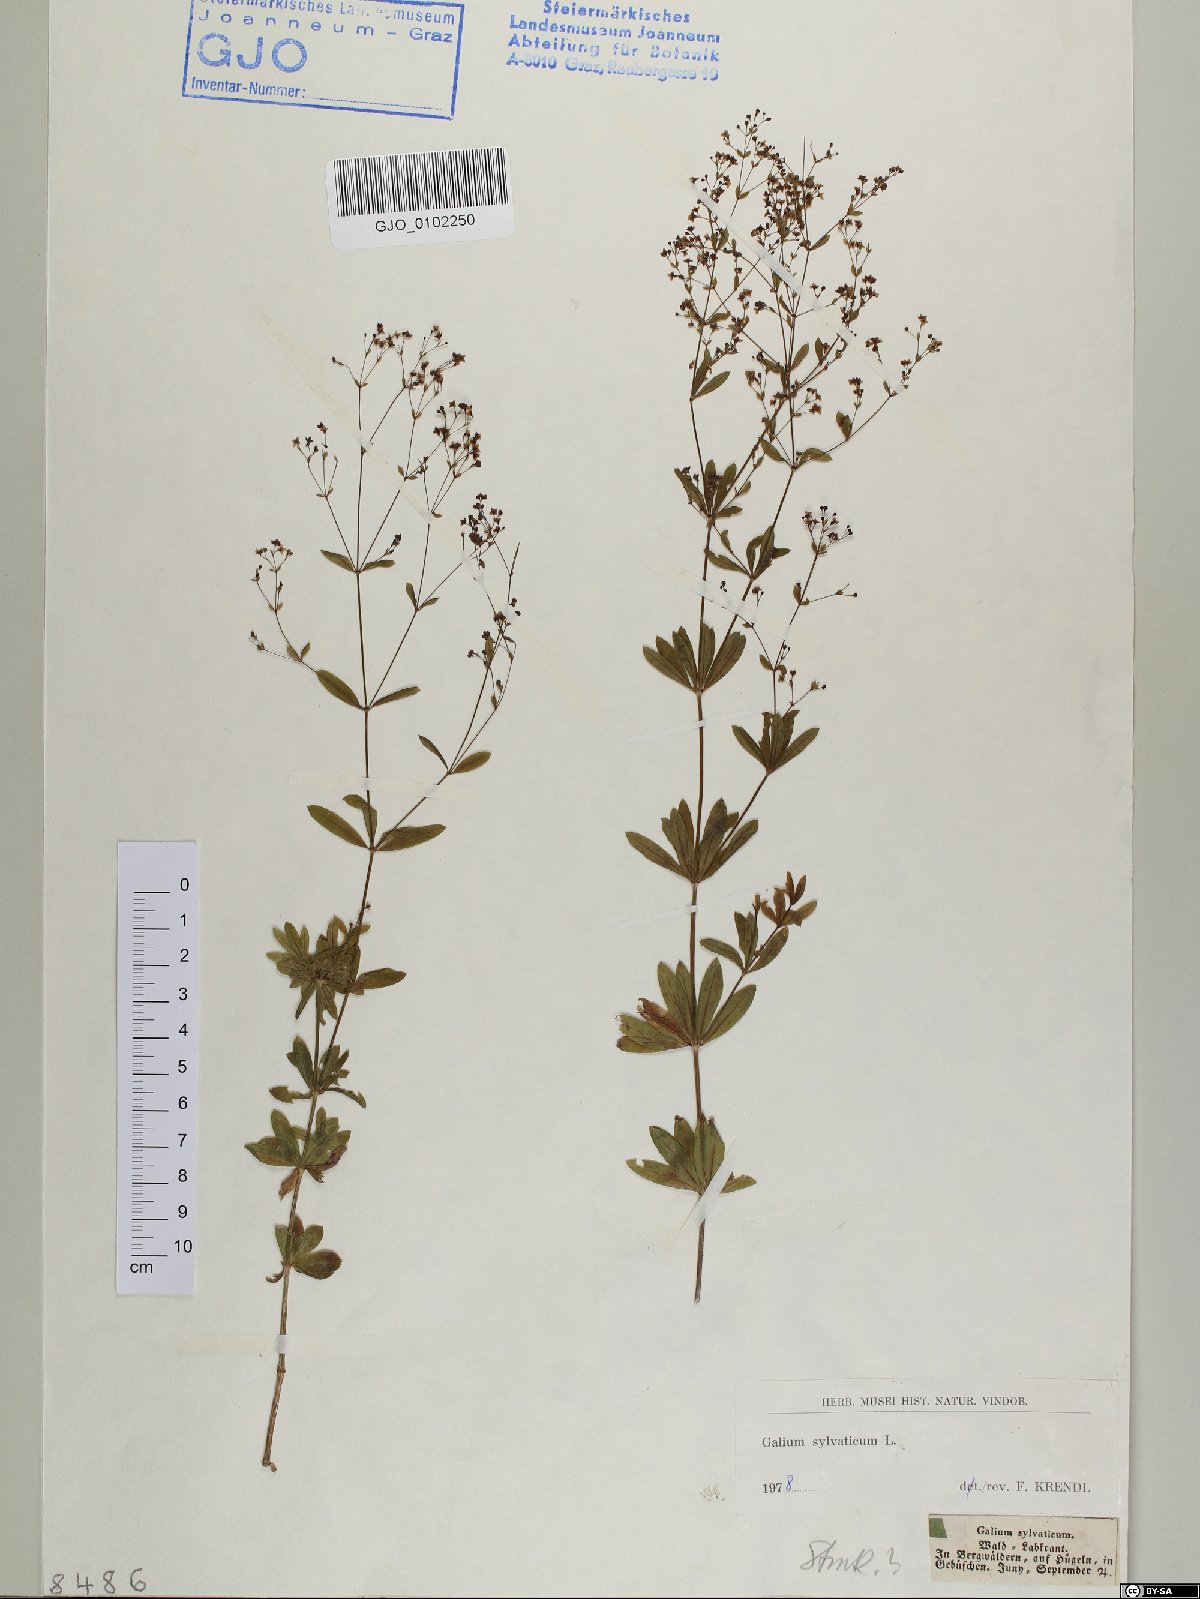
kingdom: Plantae
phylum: Tracheophyta
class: Magnoliopsida
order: Gentianales
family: Rubiaceae
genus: Galium
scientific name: Galium sylvaticum
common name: Wood bedstraw
